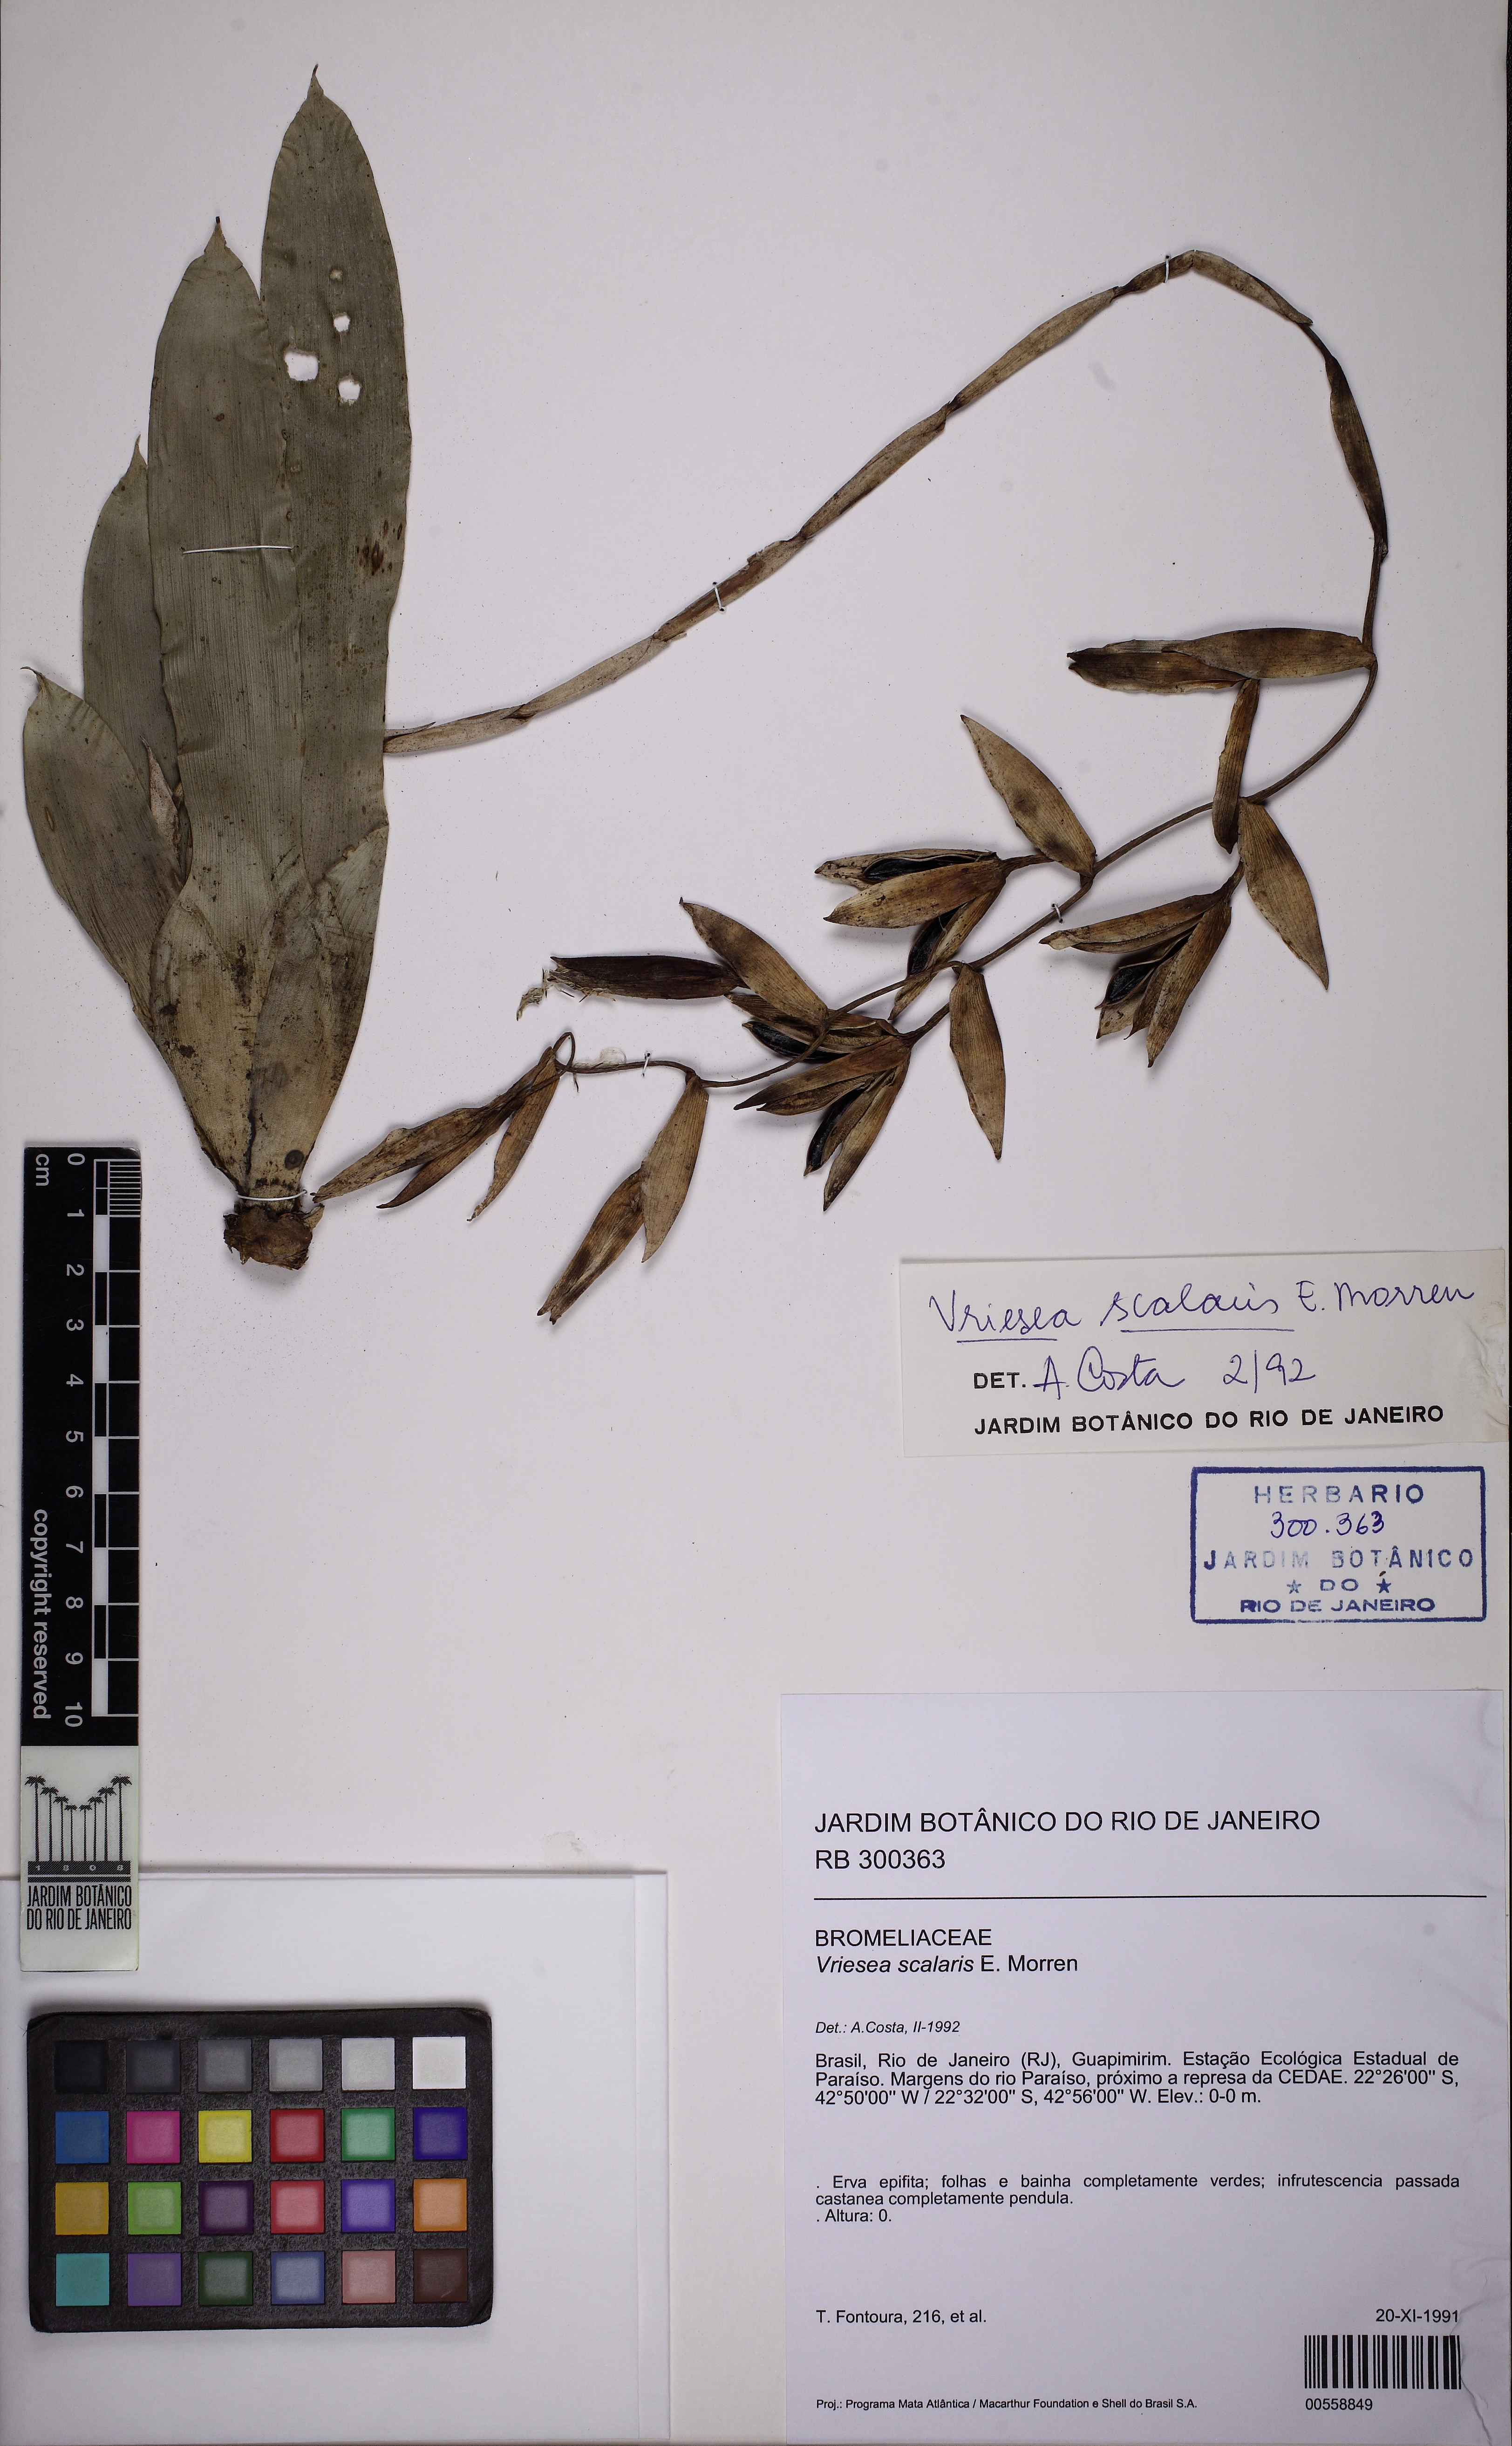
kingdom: Plantae
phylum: Tracheophyta
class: Liliopsida
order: Poales
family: Bromeliaceae
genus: Vriesea
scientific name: Vriesea scalaris
